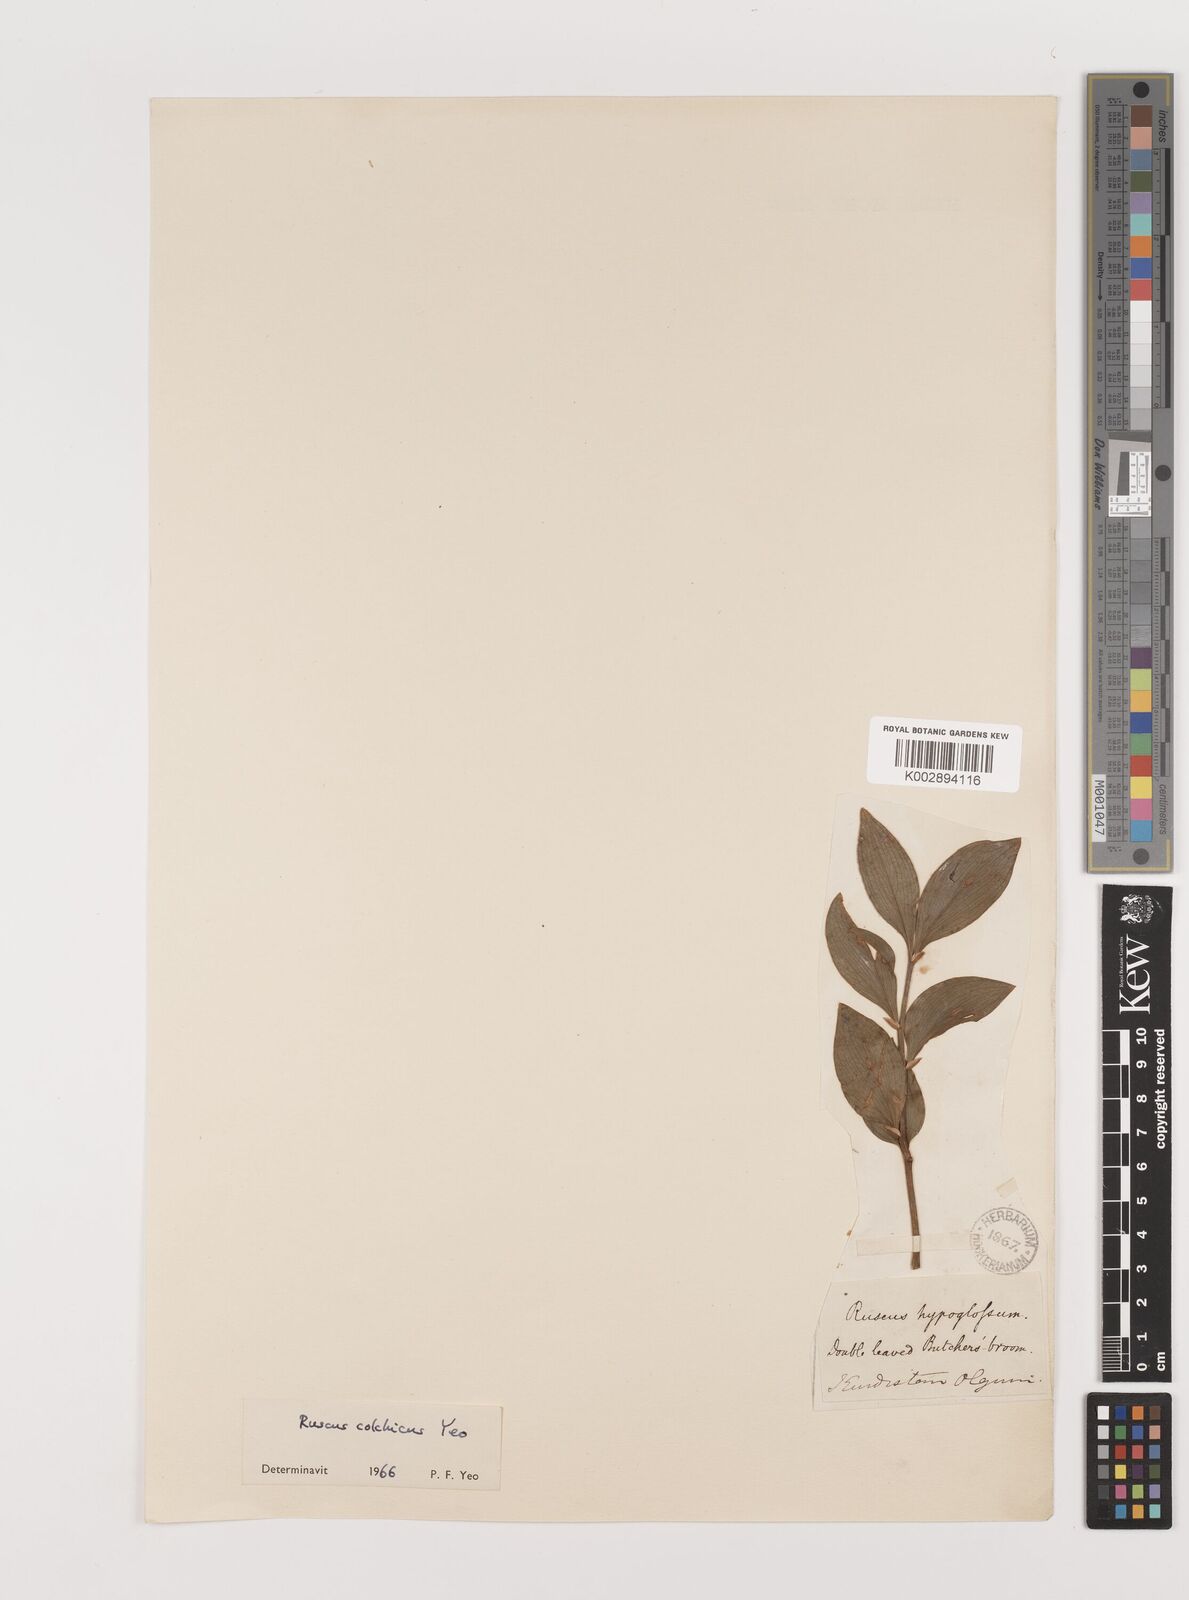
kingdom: Plantae
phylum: Tracheophyta
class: Liliopsida
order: Asparagales
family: Asparagaceae
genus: Ruscus
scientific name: Ruscus colchicus
